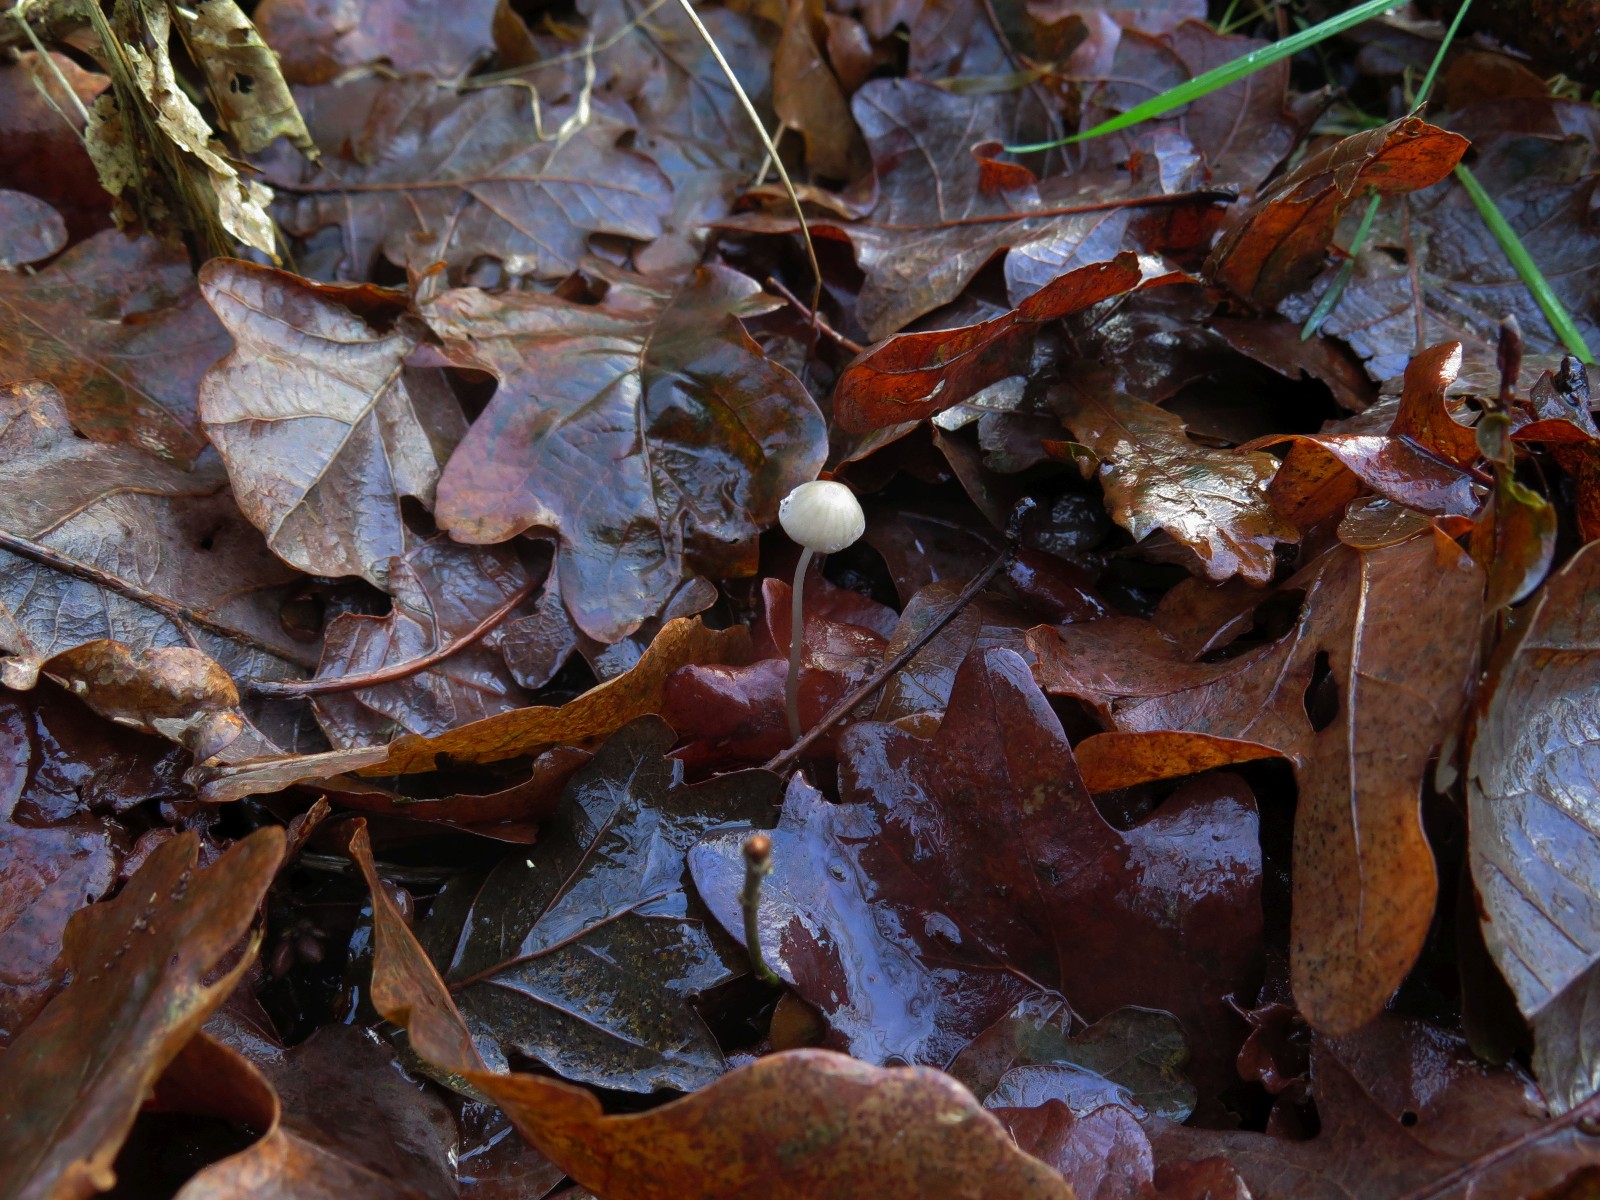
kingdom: Fungi
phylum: Basidiomycota
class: Agaricomycetes
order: Agaricales
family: Mycenaceae
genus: Mycena
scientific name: Mycena vitilis
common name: blankstokket huesvamp
